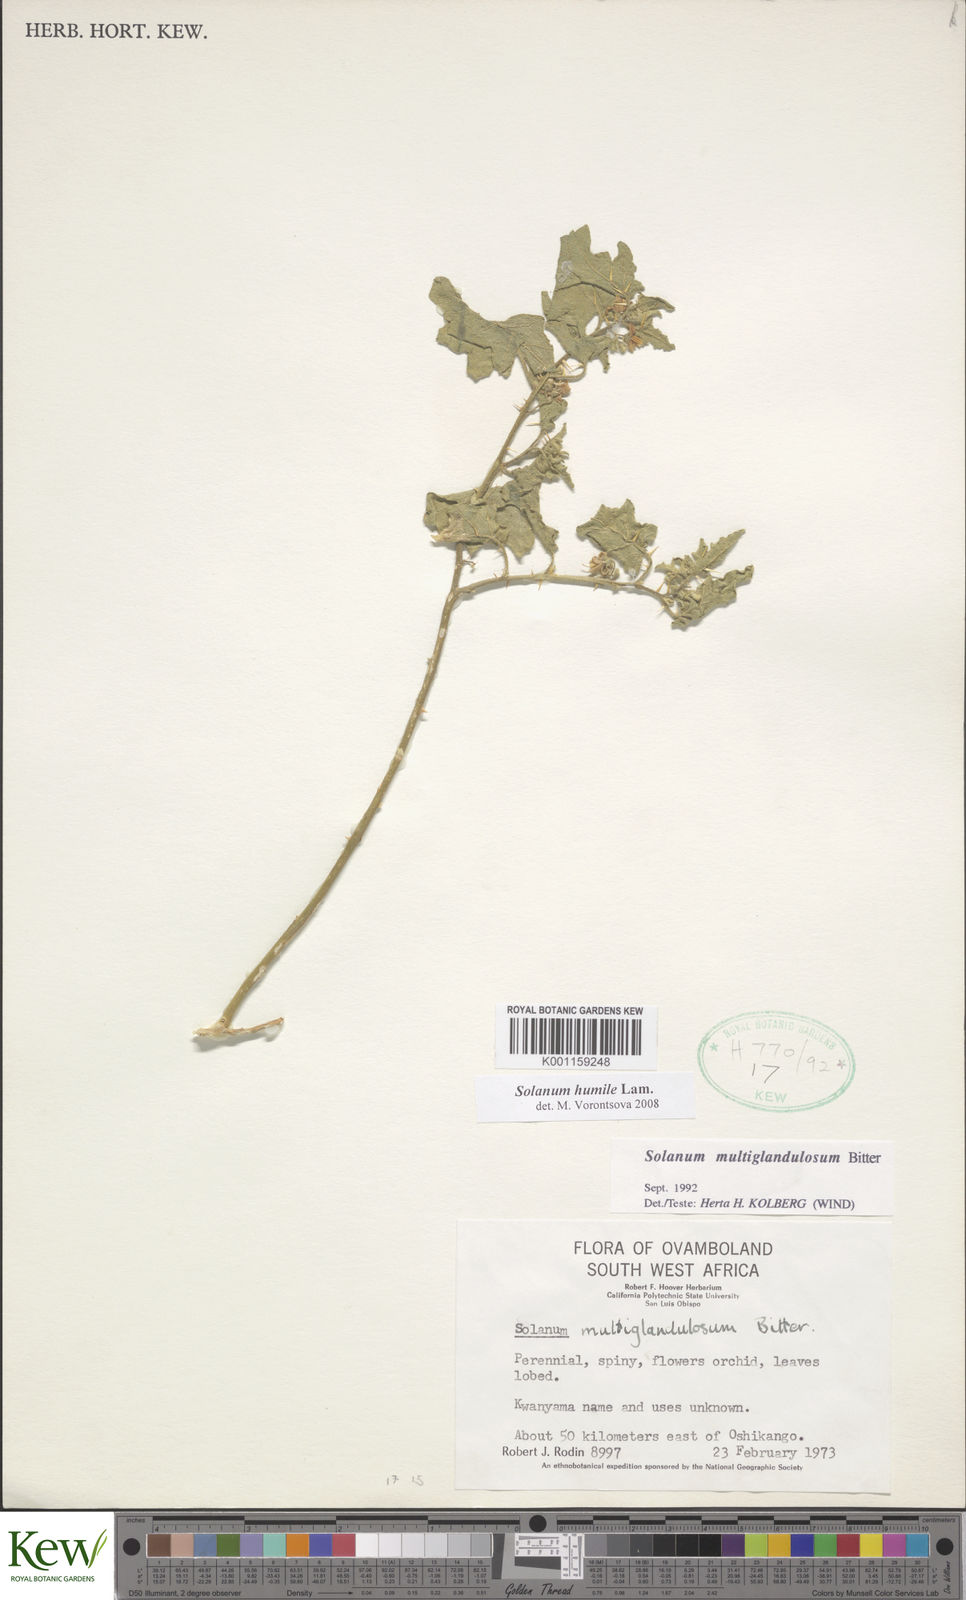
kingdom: Plantae
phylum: Tracheophyta
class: Magnoliopsida
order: Solanales
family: Solanaceae
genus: Solanum
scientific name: Solanum humile
